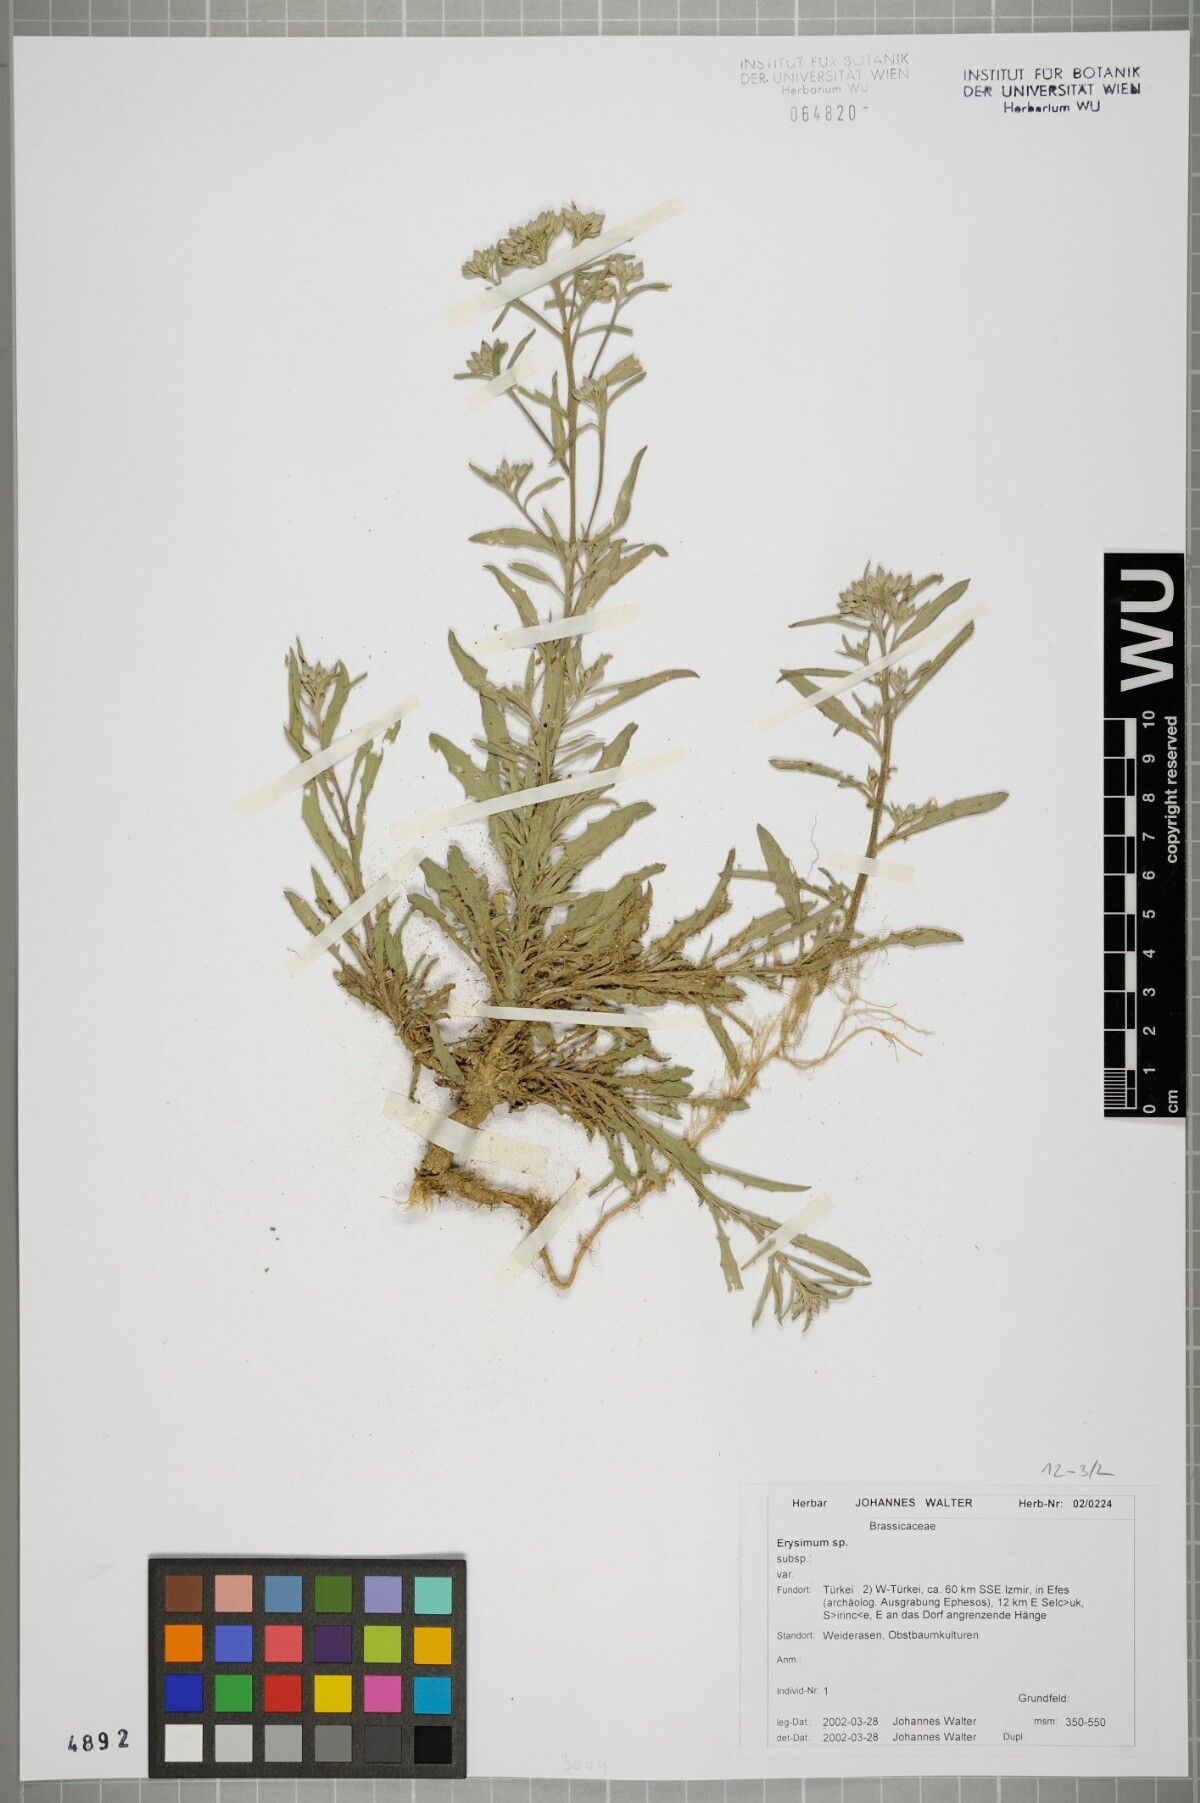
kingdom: Plantae
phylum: Tracheophyta
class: Magnoliopsida
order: Brassicales
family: Brassicaceae
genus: Erysimum
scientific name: Erysimum
